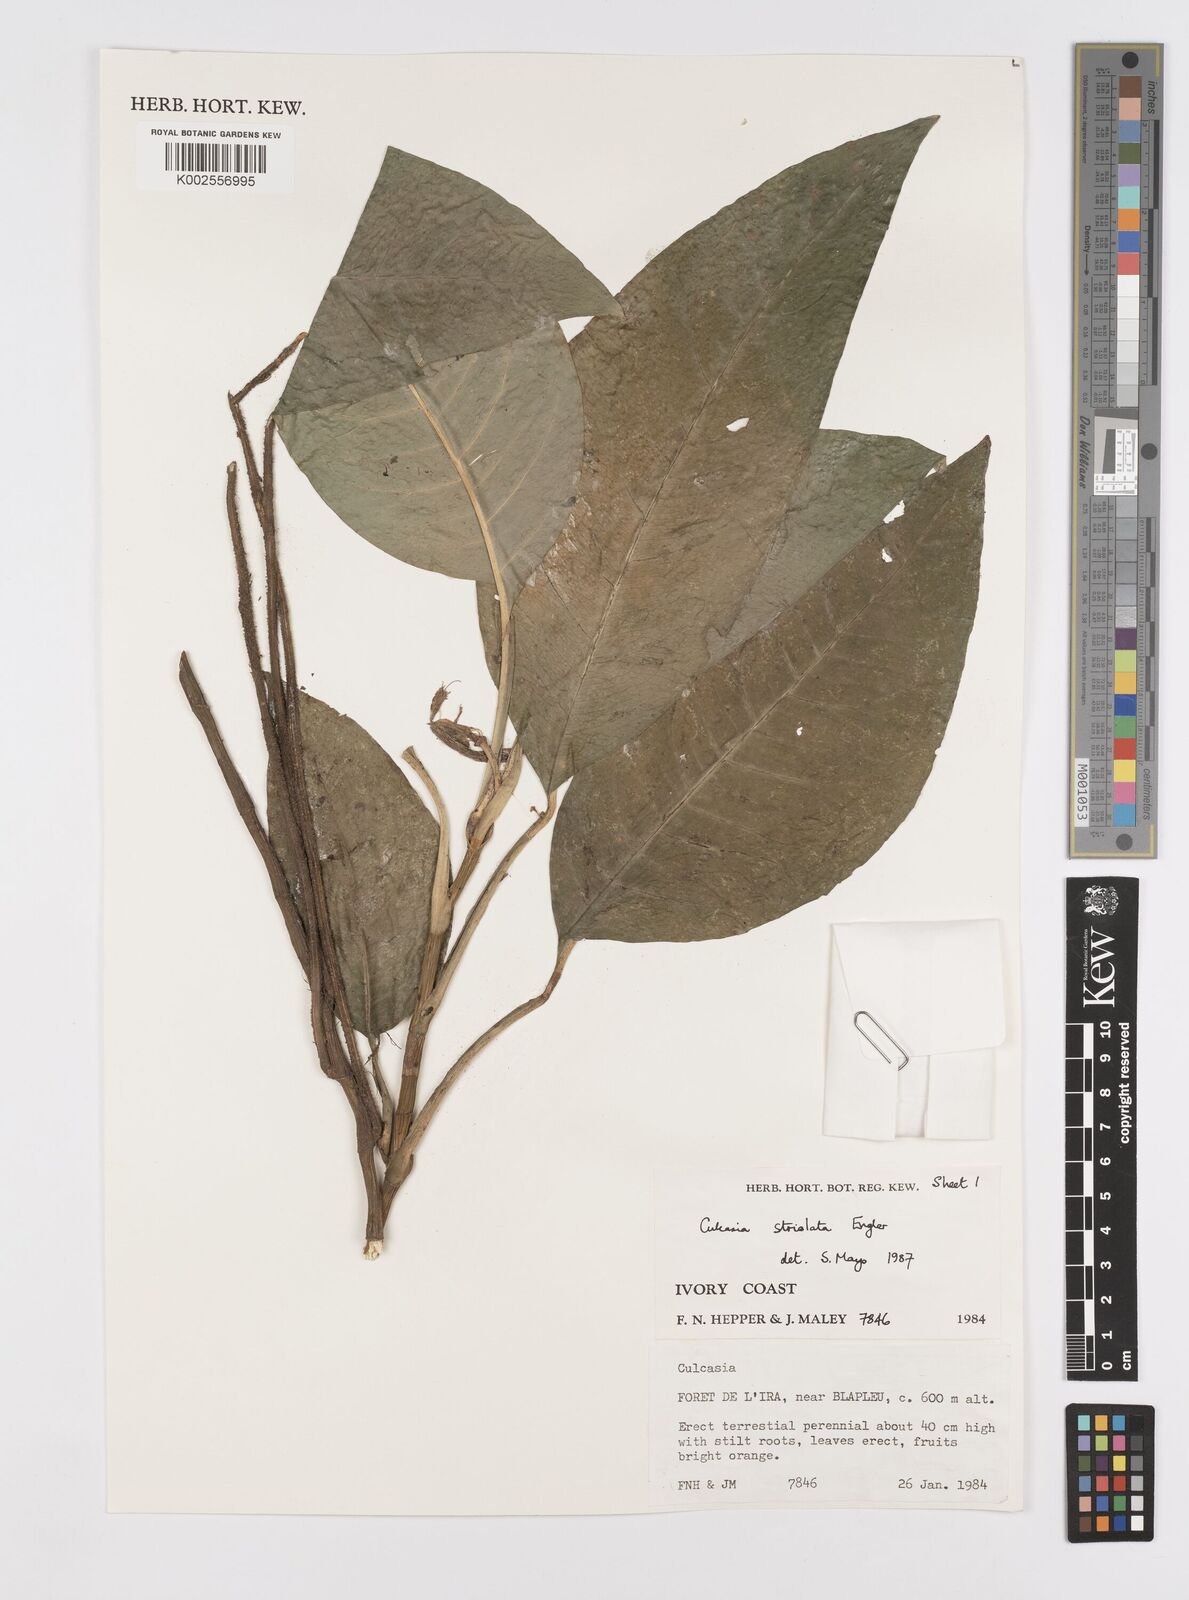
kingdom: Plantae
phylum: Tracheophyta
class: Liliopsida
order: Alismatales
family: Araceae
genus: Culcasia
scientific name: Culcasia striolata
